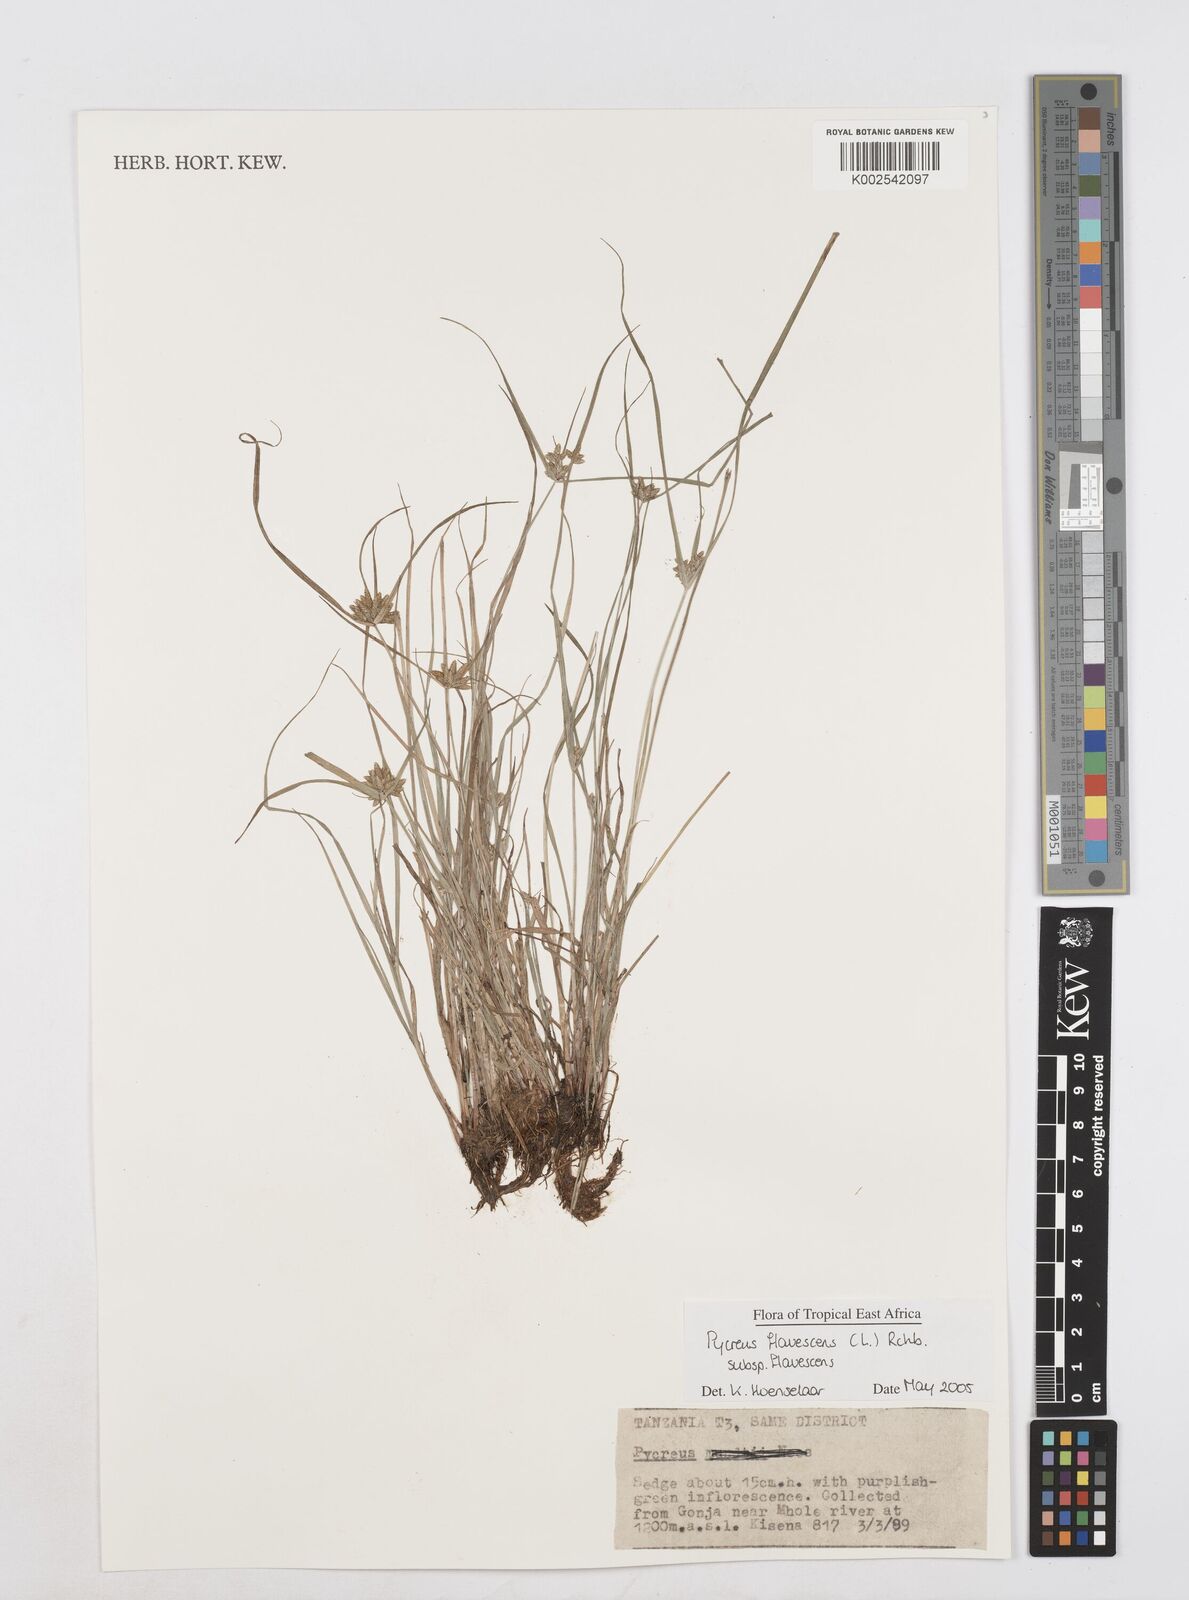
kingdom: Plantae
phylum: Tracheophyta
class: Liliopsida
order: Poales
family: Cyperaceae
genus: Cyperus
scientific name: Cyperus flavescens
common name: Yellow galingale
